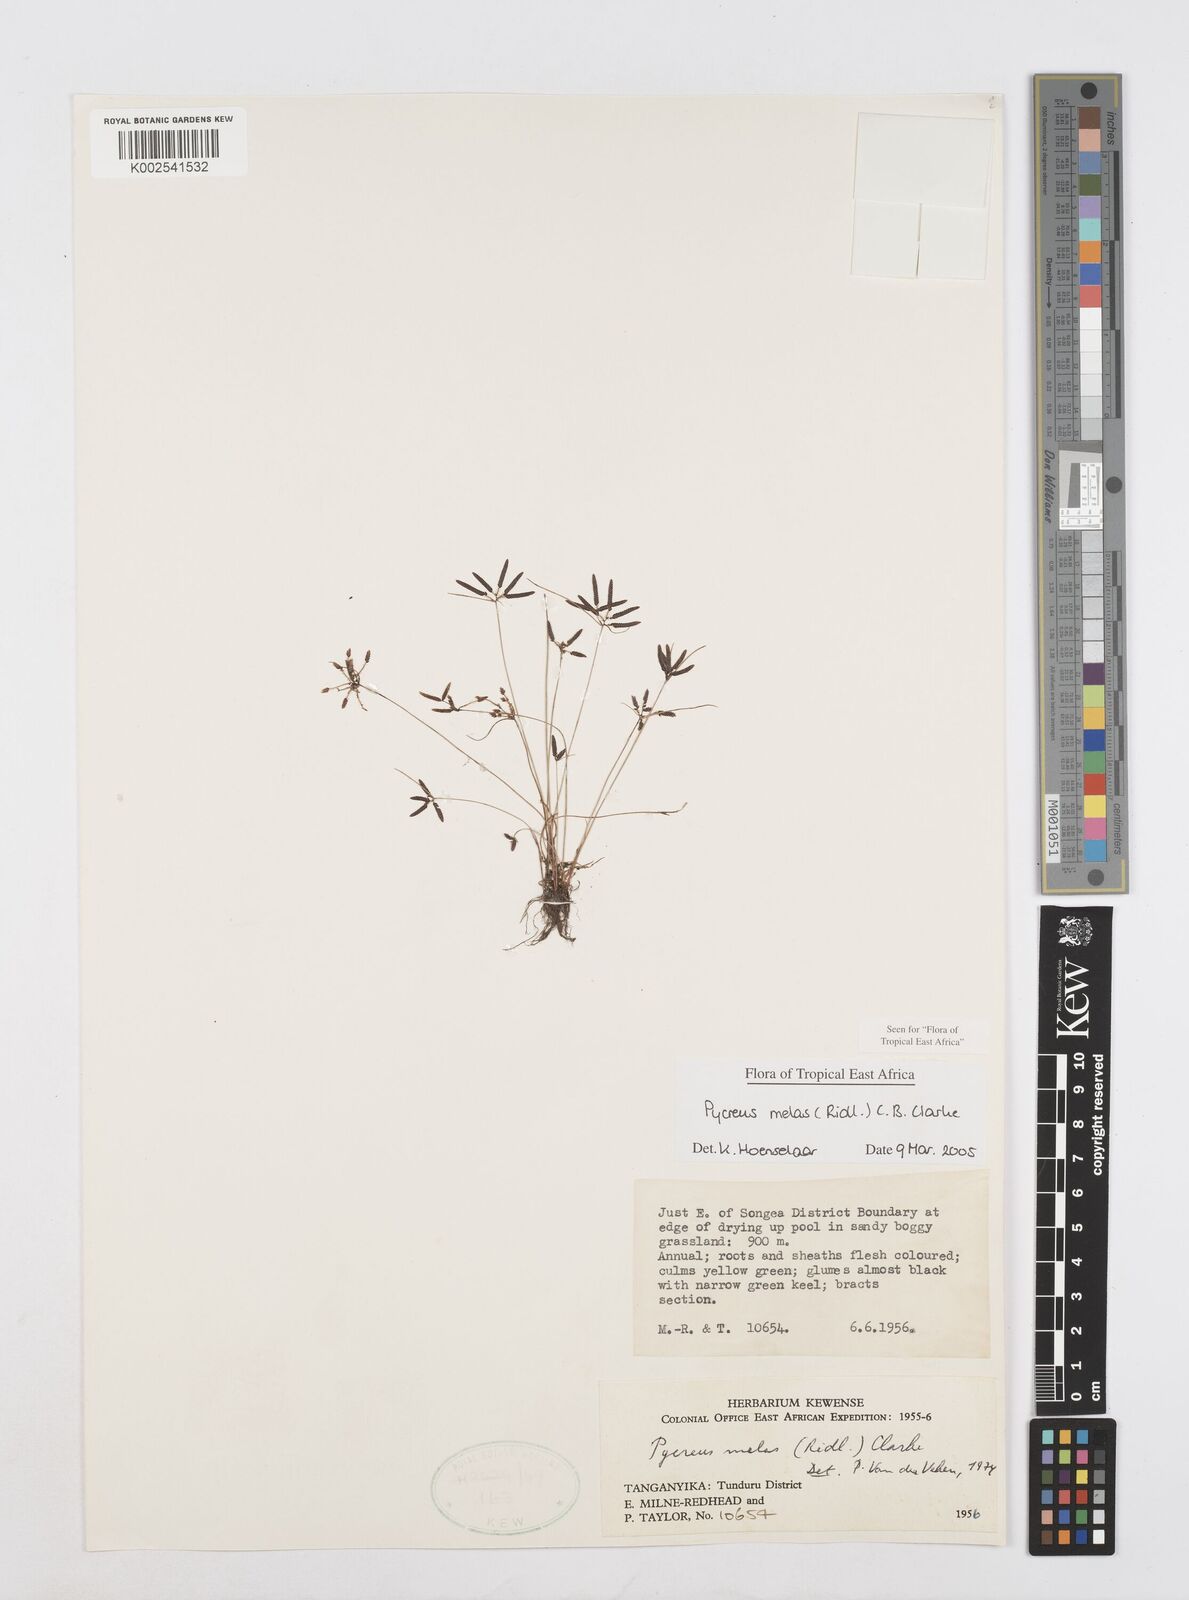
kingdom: Plantae
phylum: Tracheophyta
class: Liliopsida
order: Poales
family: Cyperaceae
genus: Cyperus
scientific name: Cyperus melas
